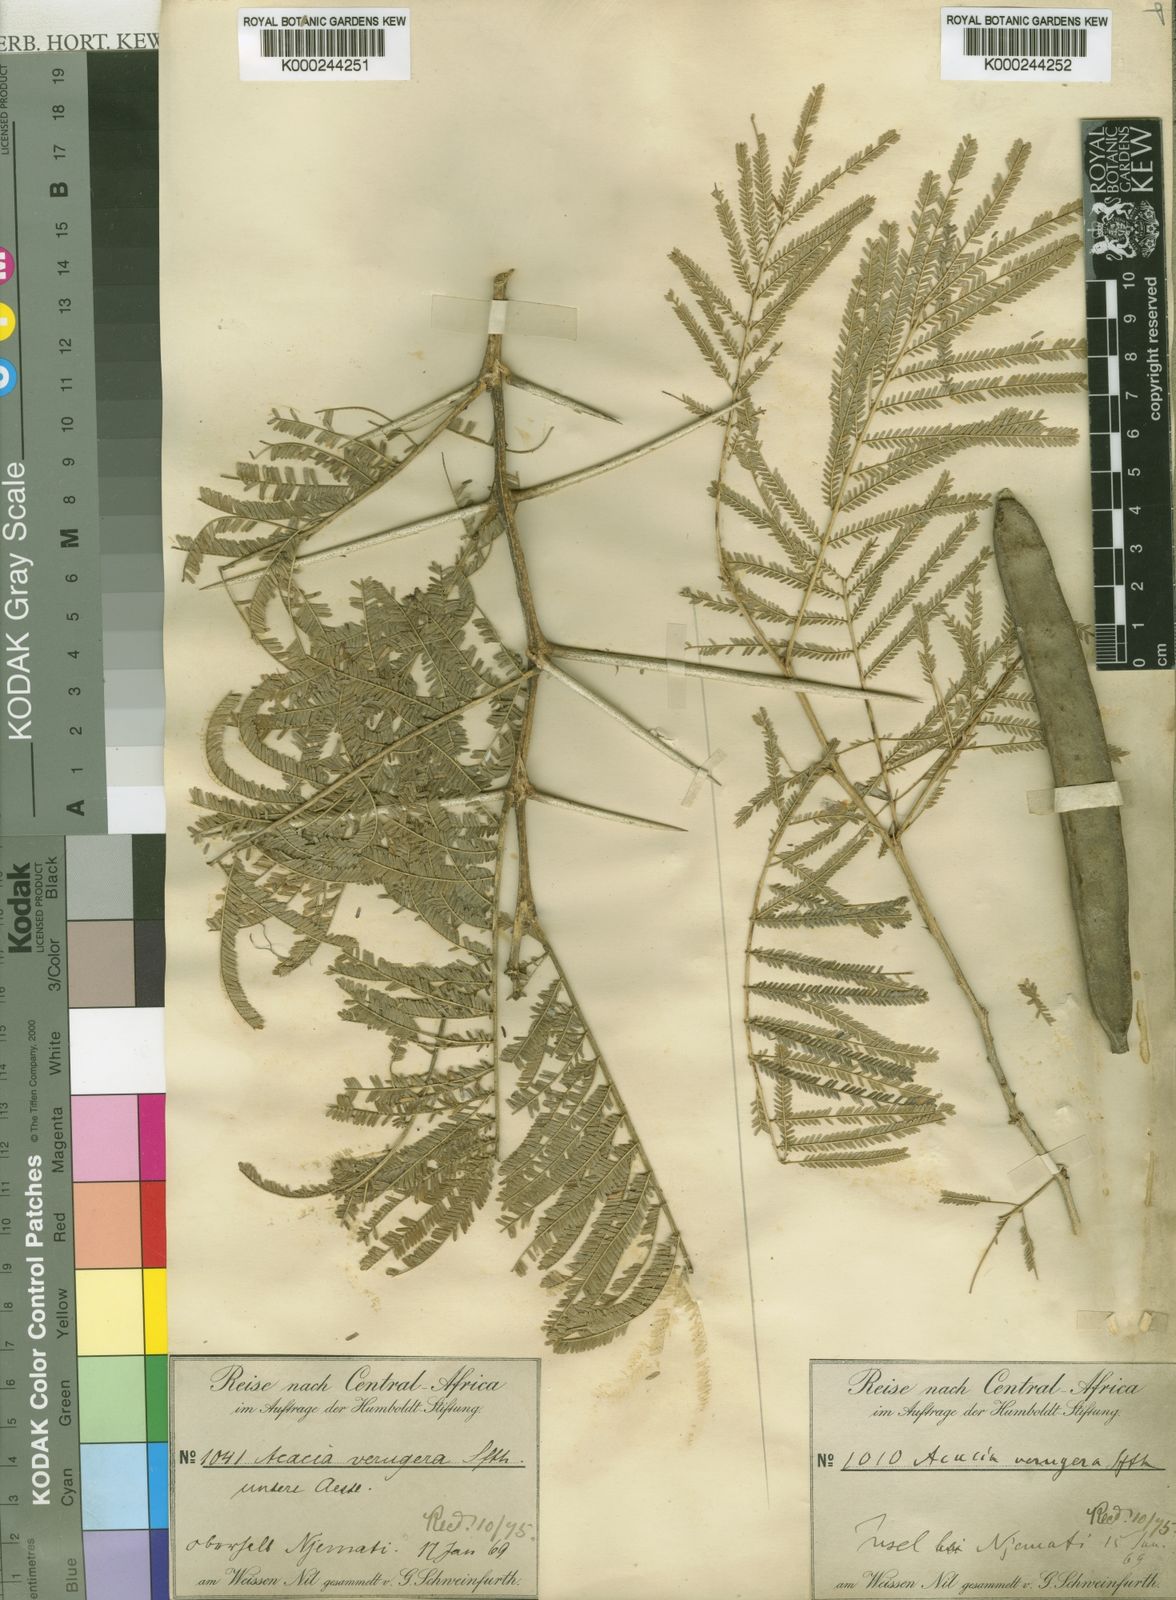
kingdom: Plantae
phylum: Tracheophyta
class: Magnoliopsida
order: Fabales
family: Fabaceae
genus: Vachellia
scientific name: Vachellia sieberiana
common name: Flat-topped thorn
